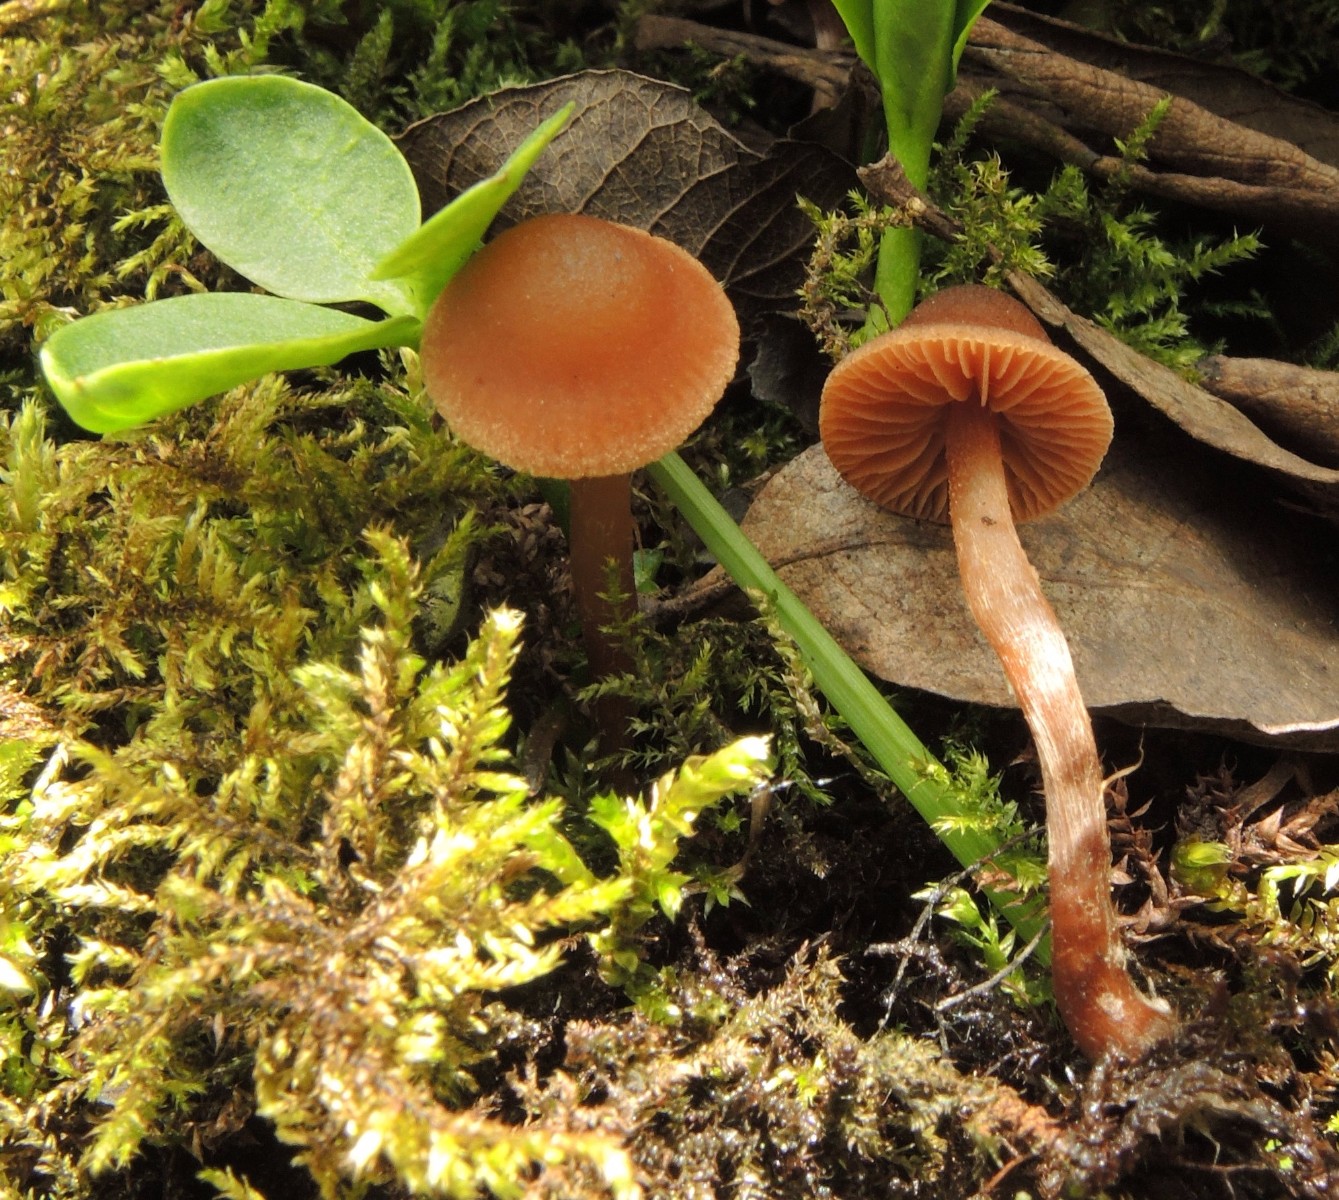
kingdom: Fungi
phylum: Basidiomycota
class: Agaricomycetes
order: Agaricales
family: Hymenogastraceae
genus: Naucoria
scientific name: Naucoria scolecina
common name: mørk elle-knaphat
